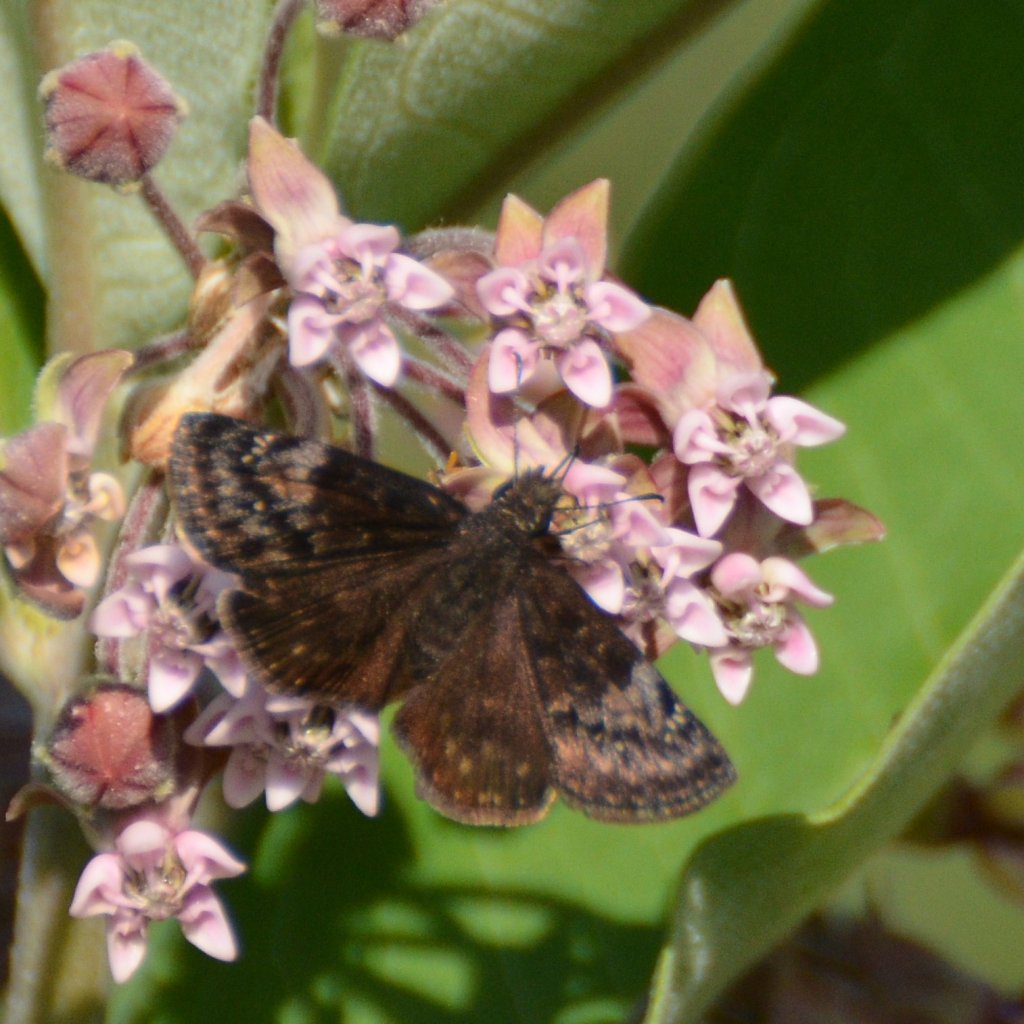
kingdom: Animalia
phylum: Arthropoda
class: Insecta
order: Lepidoptera
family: Hesperiidae
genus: Gesta
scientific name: Gesta
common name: Columbine Duskywing
